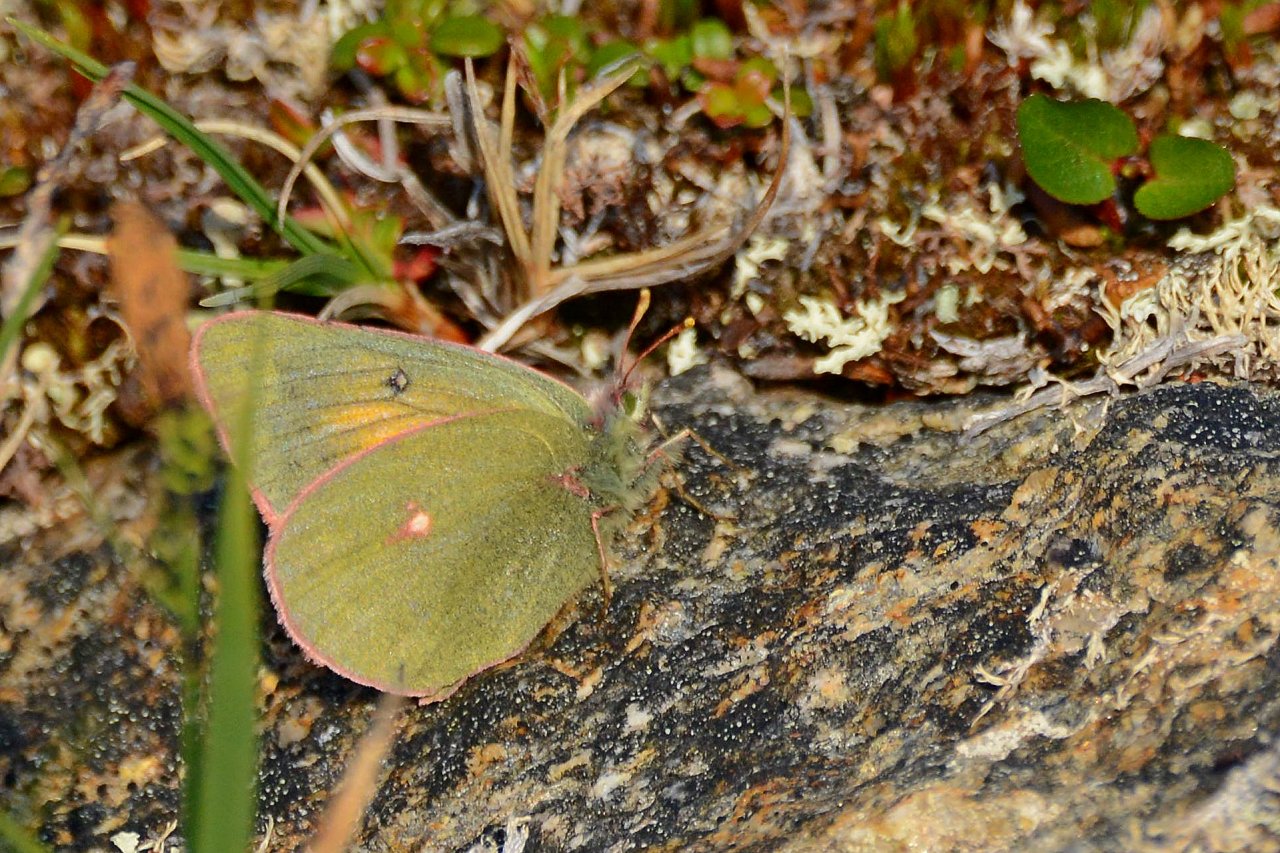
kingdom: Animalia
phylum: Arthropoda
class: Insecta
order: Lepidoptera
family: Pieridae
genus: Colias
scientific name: Colias hecla
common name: Hecla Sulphur
